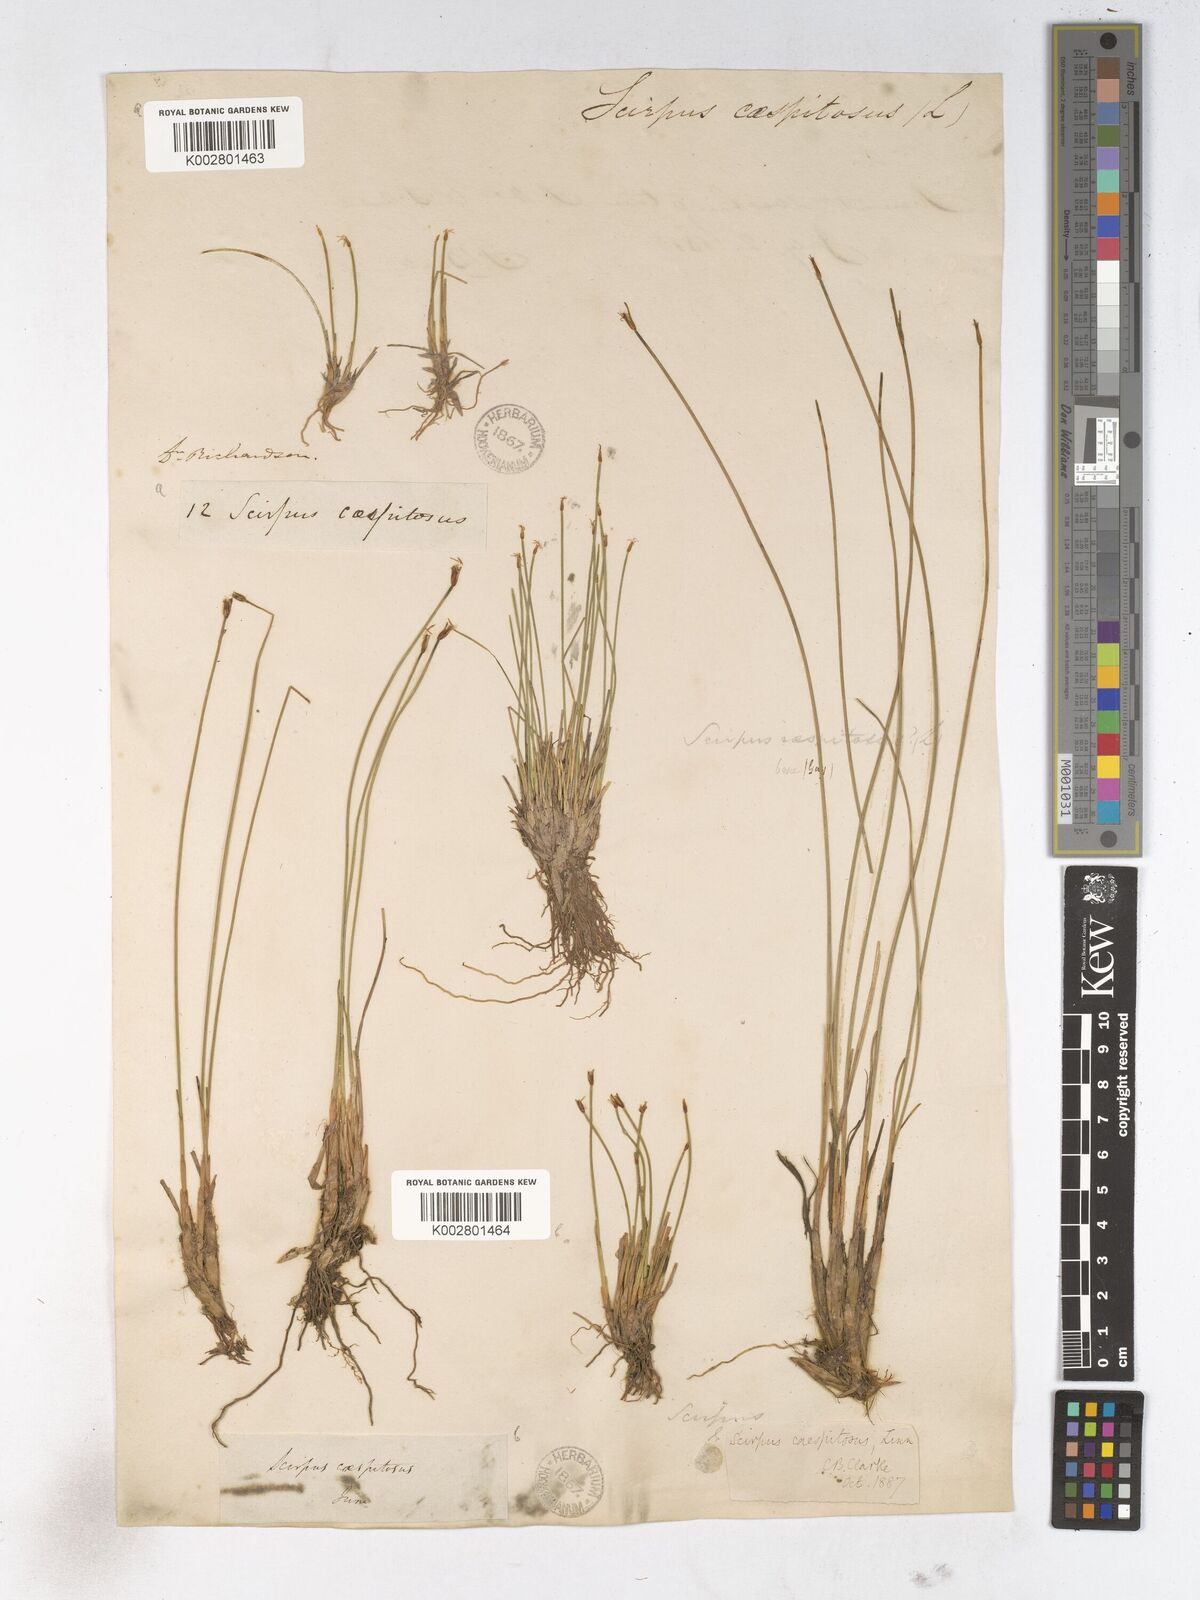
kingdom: Plantae
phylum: Tracheophyta
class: Liliopsida
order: Poales
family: Cyperaceae
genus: Trichophorum
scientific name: Trichophorum cespitosum
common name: Cespitose bulrush
